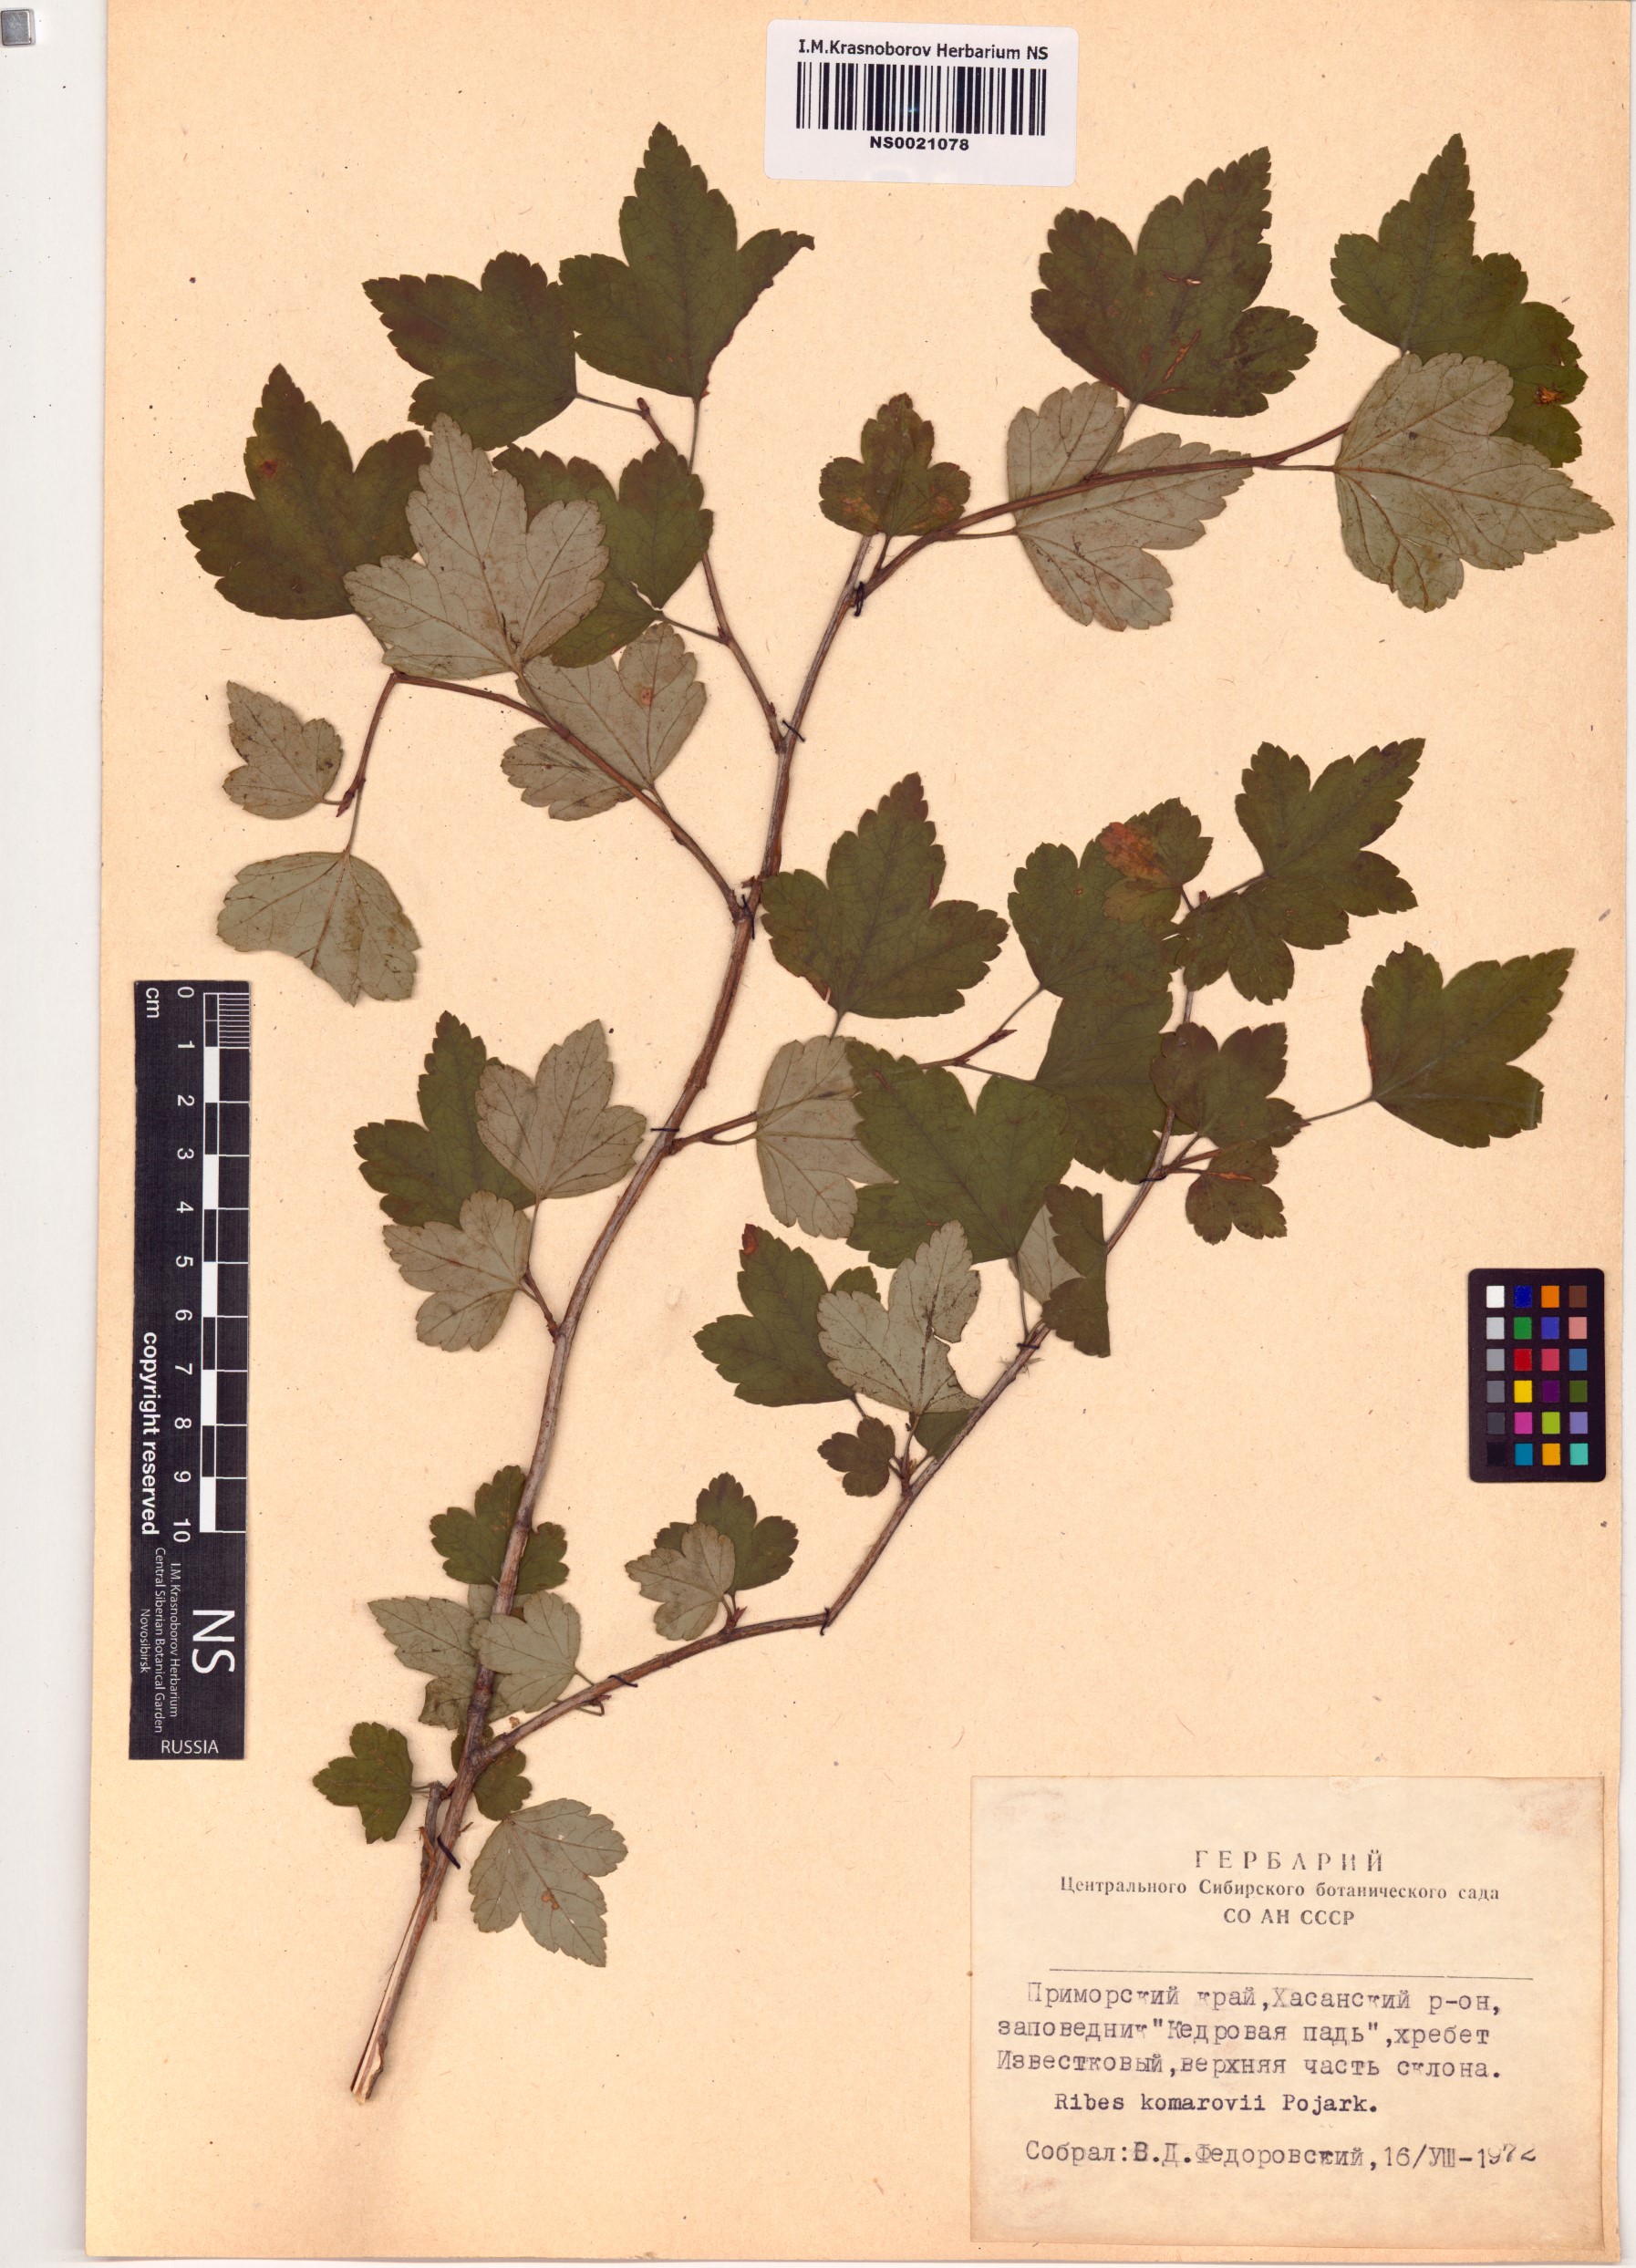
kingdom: Plantae
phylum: Tracheophyta
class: Magnoliopsida
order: Saxifragales
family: Grossulariaceae
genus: Ribes
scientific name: Ribes komarovii
